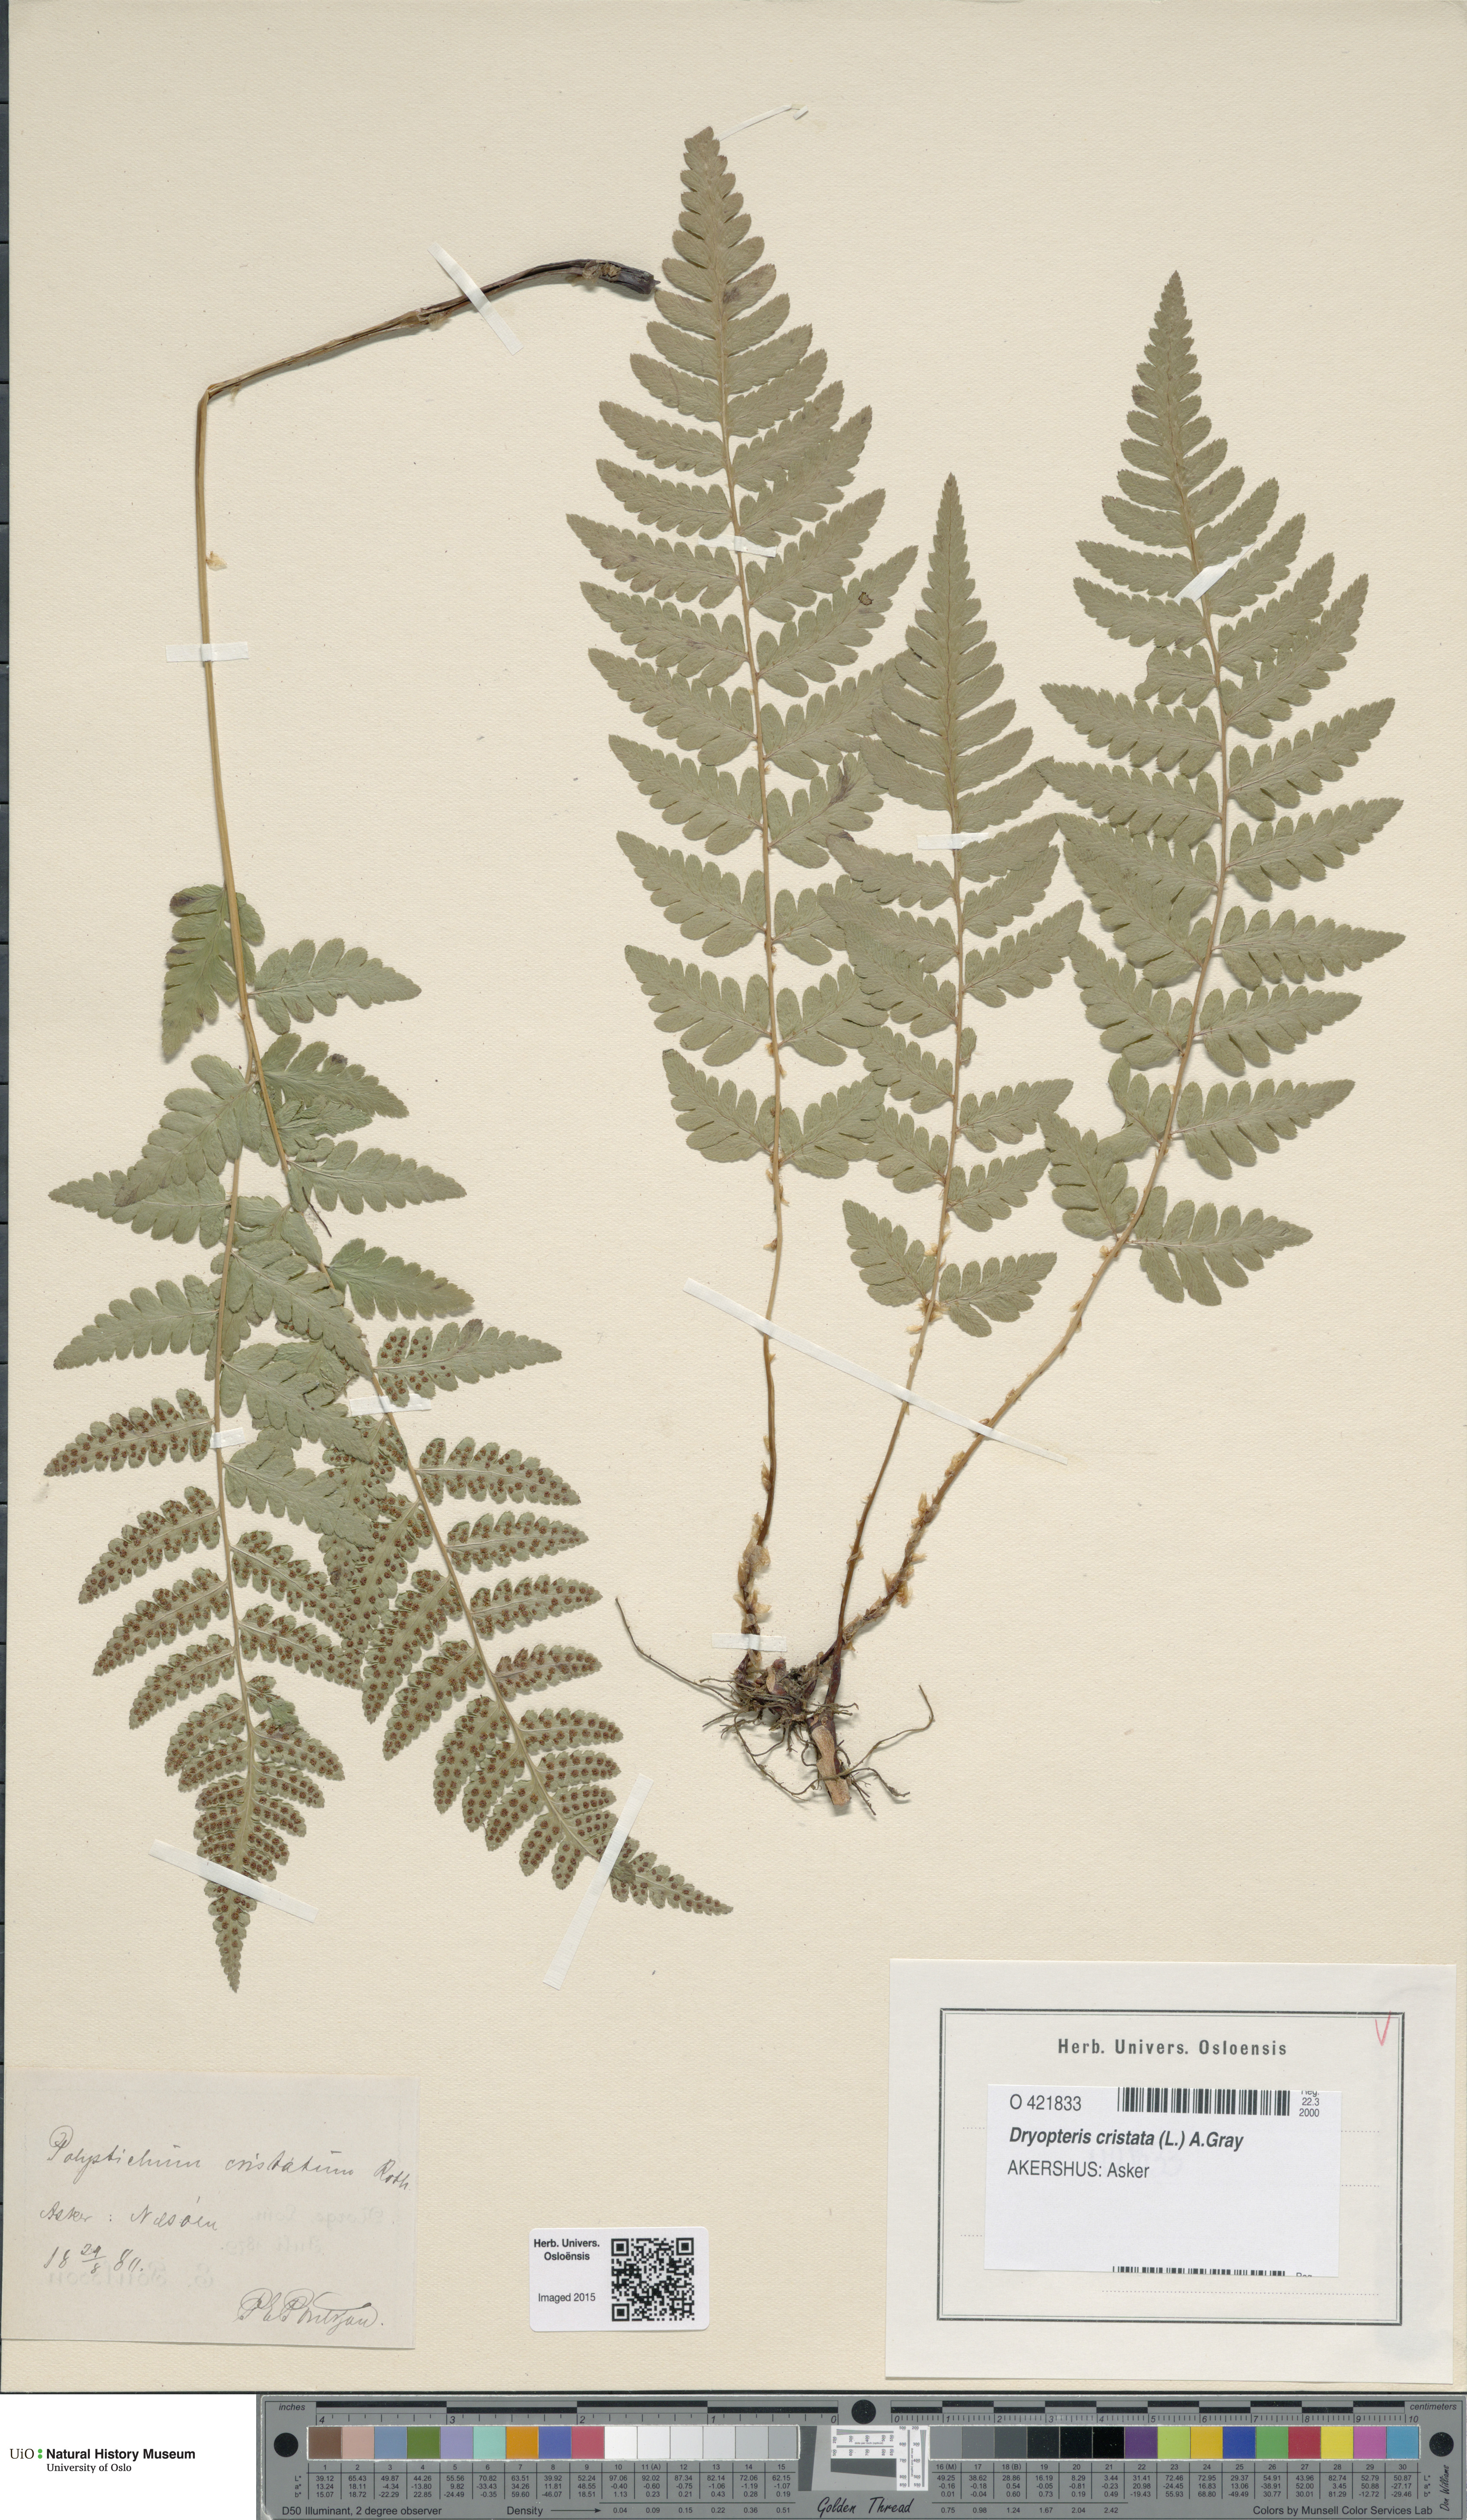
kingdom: Plantae
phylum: Tracheophyta
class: Polypodiopsida
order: Polypodiales
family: Dryopteridaceae
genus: Dryopteris
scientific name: Dryopteris cristata
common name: Crested wood fern
